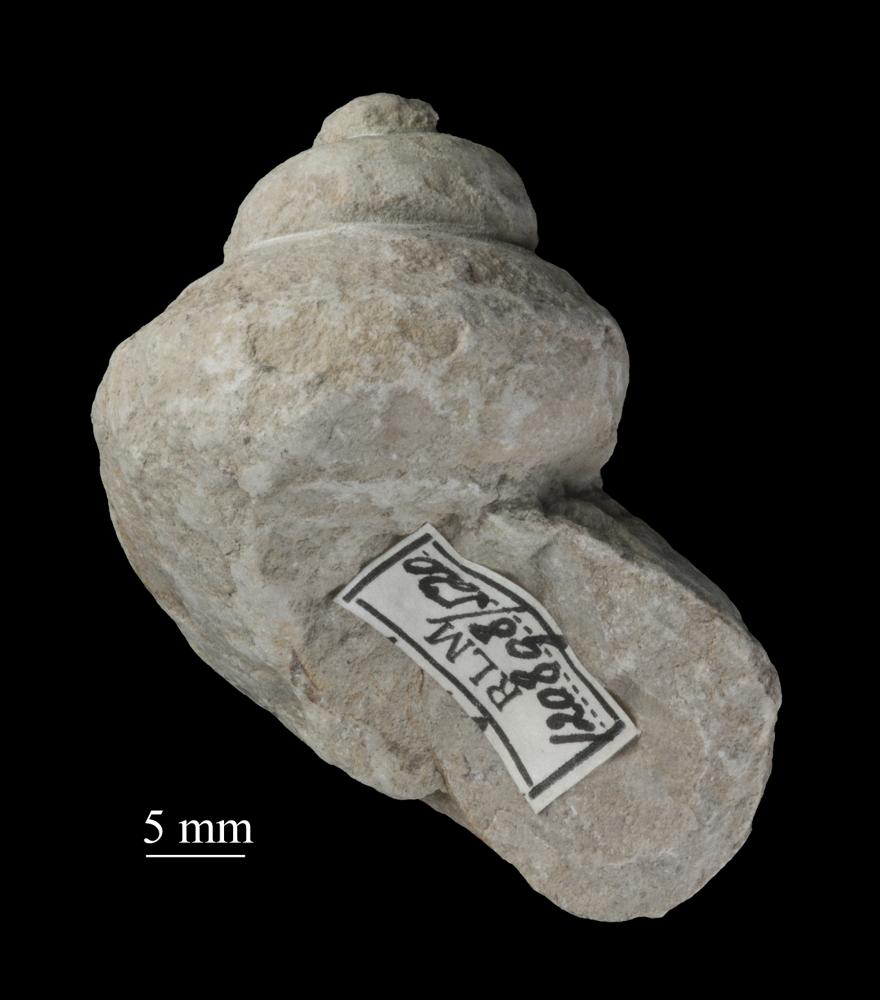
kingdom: Animalia
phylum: Mollusca
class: Gastropoda
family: Lophospiridae
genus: Ruedemannia
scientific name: Ruedemannia Worthenia borkholmiensis
